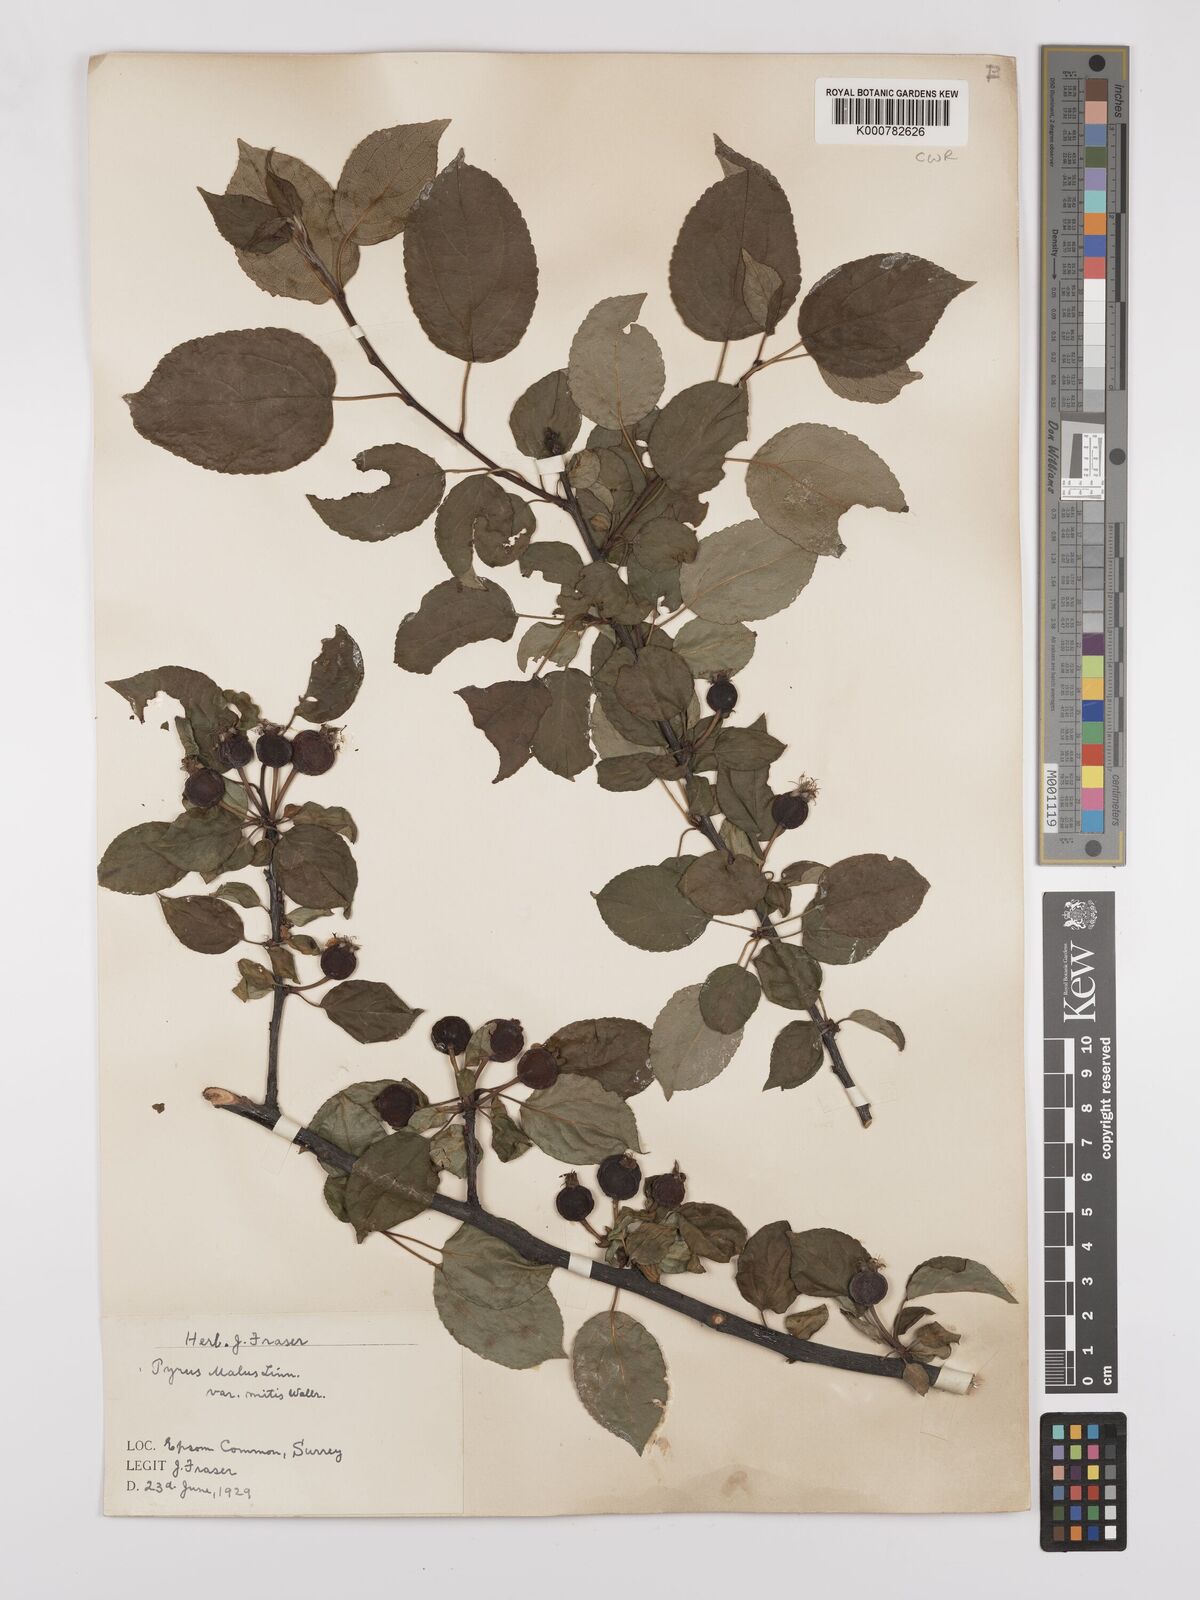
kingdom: Plantae
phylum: Tracheophyta
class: Magnoliopsida
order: Rosales
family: Rosaceae
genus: Malus
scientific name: Malus domestica
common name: Apple
